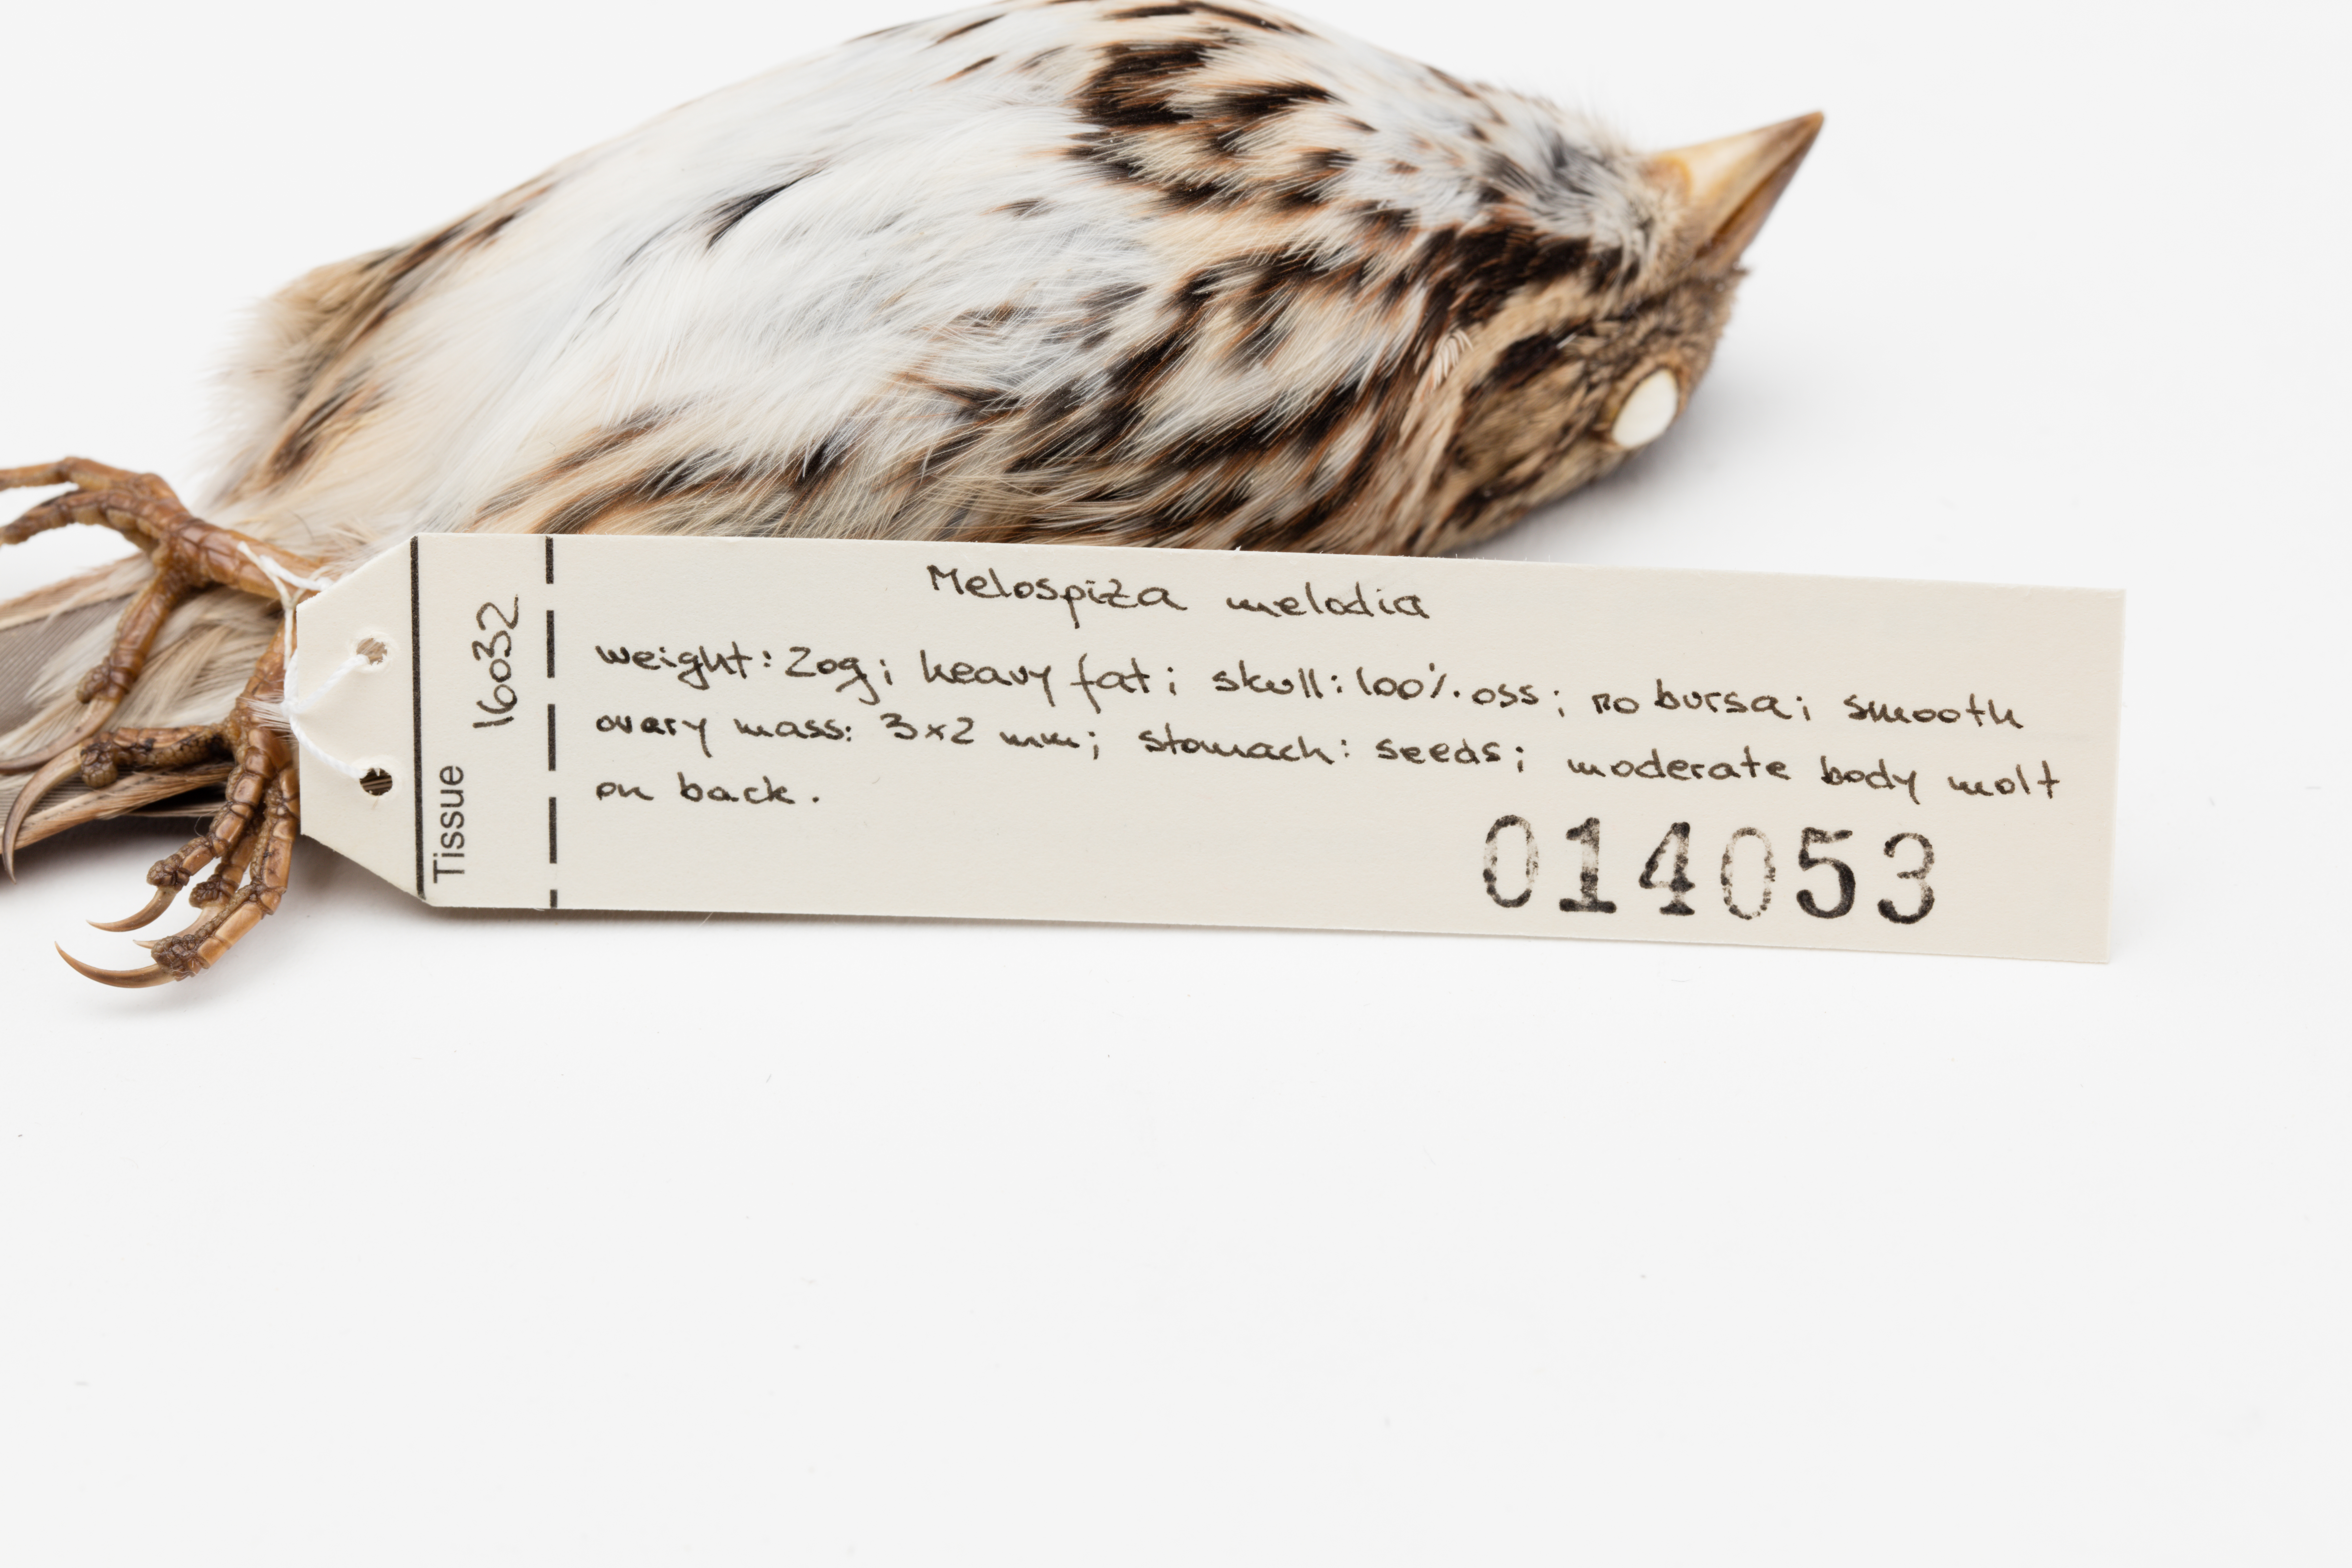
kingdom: Animalia
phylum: Chordata
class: Aves
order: Passeriformes
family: Passerellidae
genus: Melospiza
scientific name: Melospiza melodia
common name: Song sparrow
